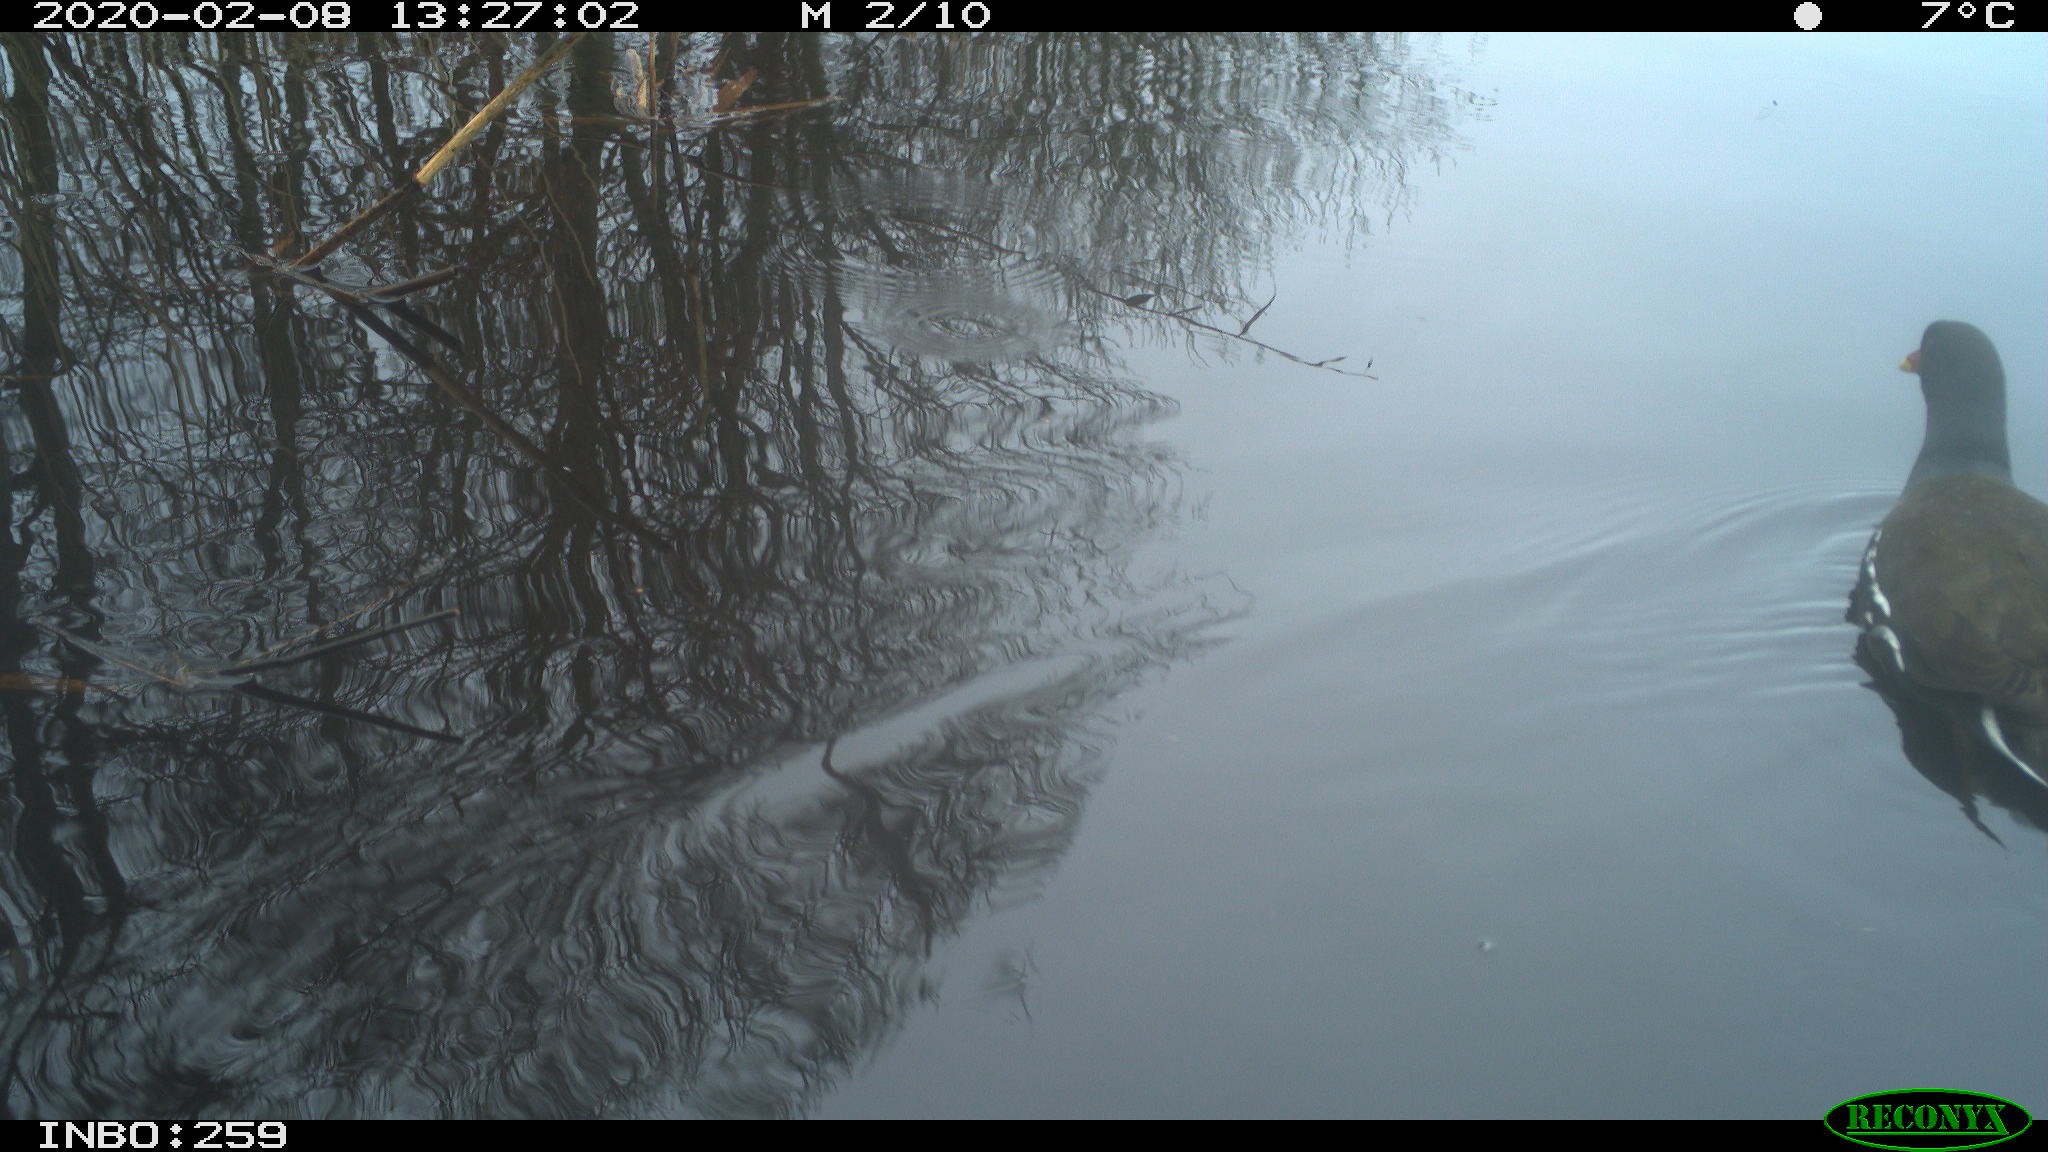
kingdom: Animalia
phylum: Chordata
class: Aves
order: Gruiformes
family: Rallidae
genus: Gallinula
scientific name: Gallinula chloropus
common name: Common moorhen
